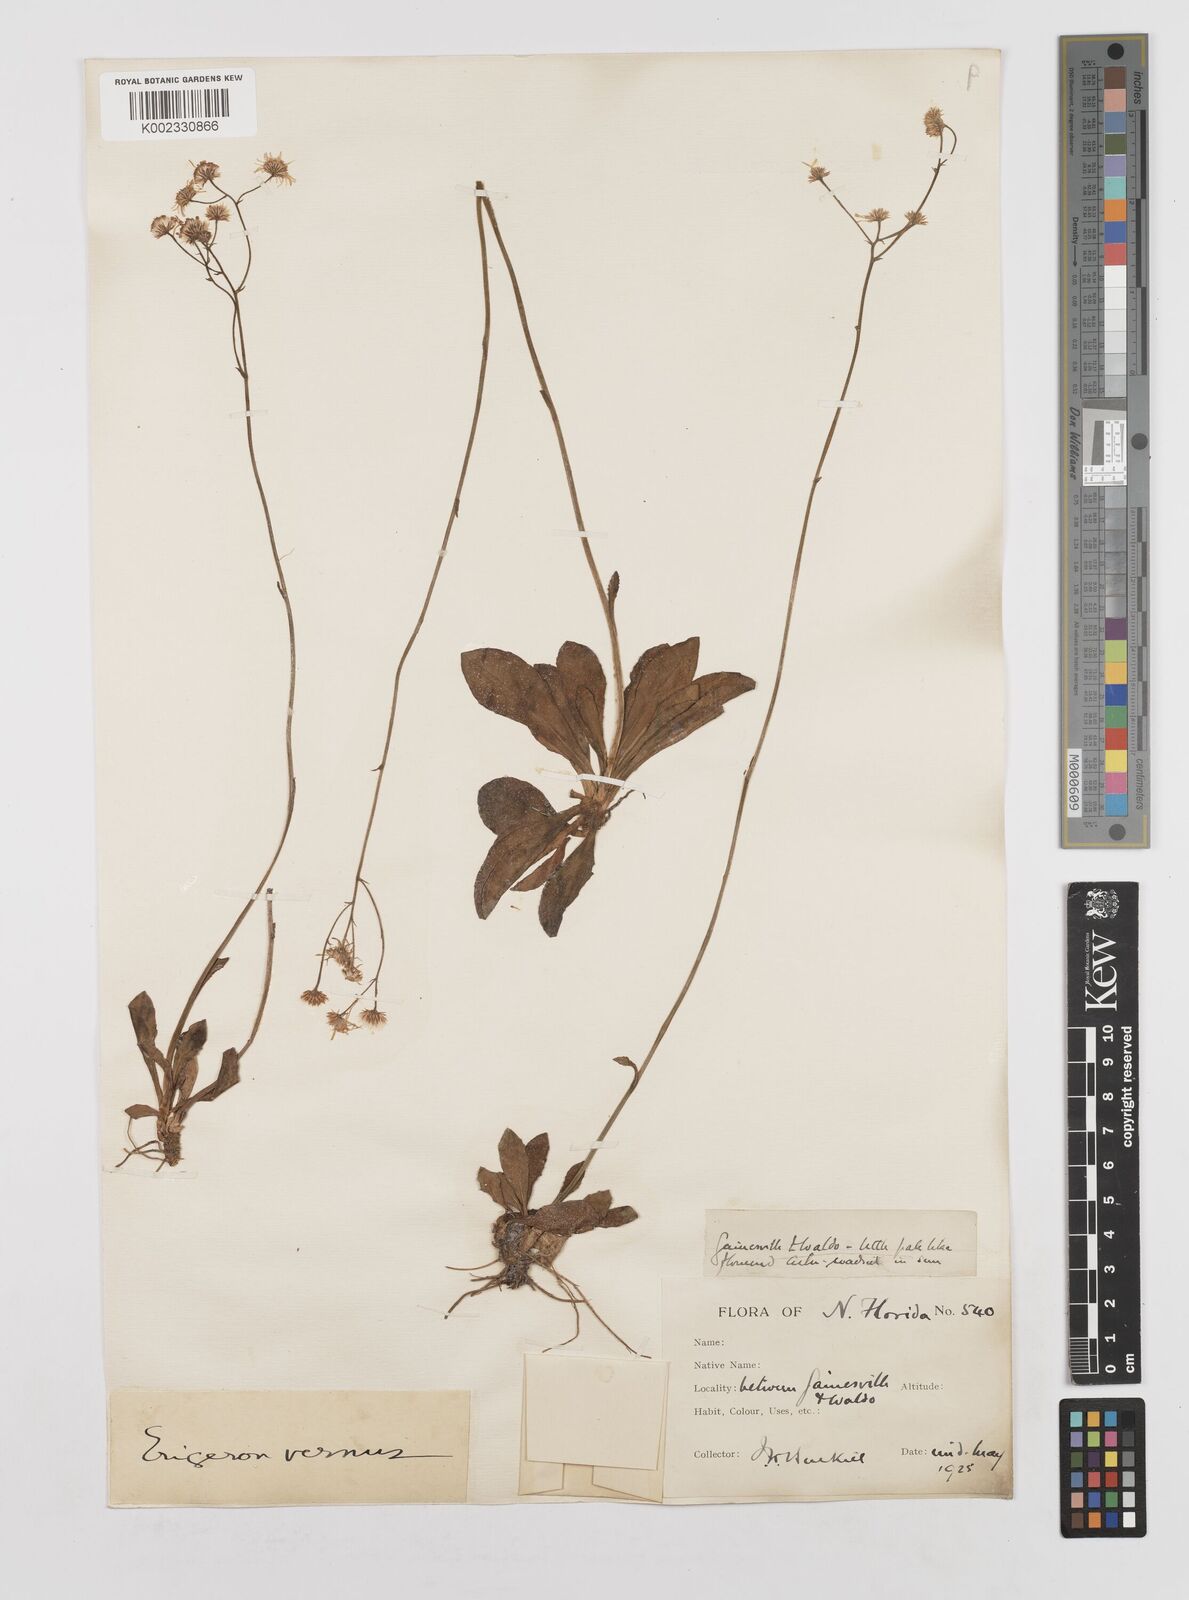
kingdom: Plantae
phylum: Tracheophyta
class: Magnoliopsida
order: Asterales
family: Asteraceae
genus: Erigeron
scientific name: Erigeron vernus
